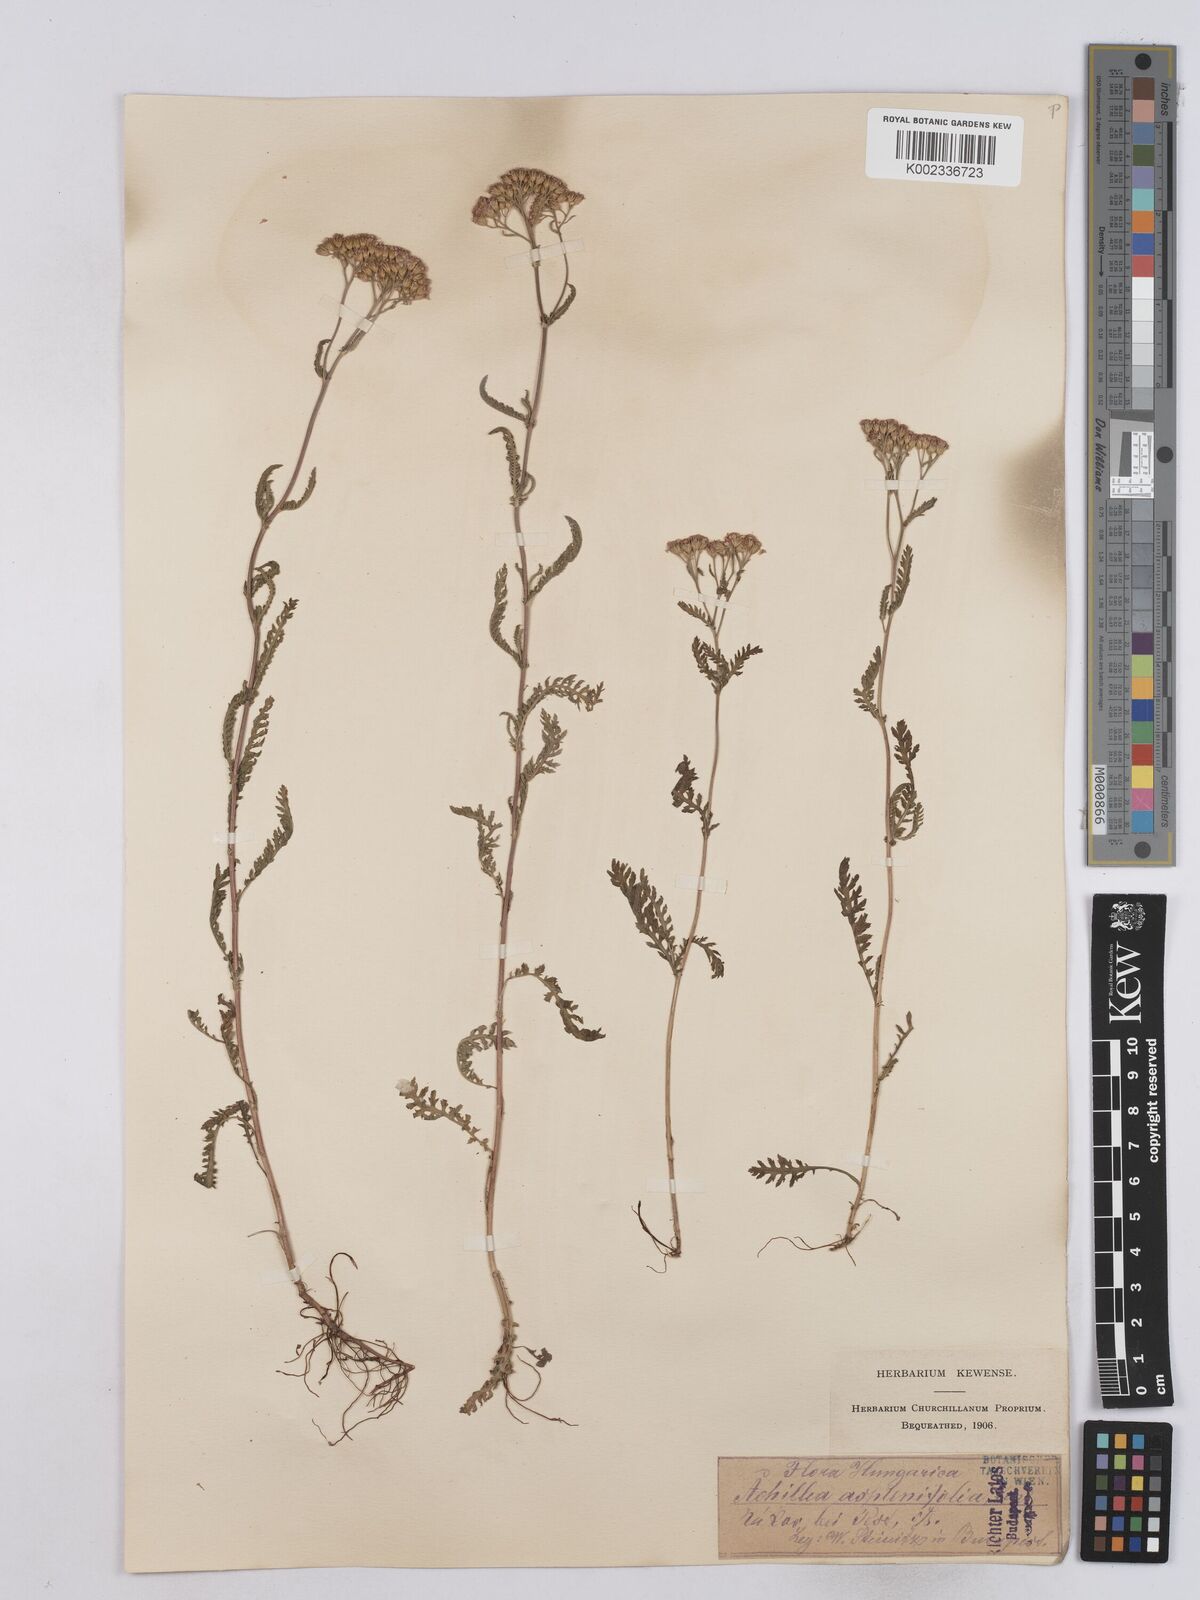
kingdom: Plantae
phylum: Tracheophyta
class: Magnoliopsida
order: Asterales
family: Asteraceae
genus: Achillea
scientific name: Achillea aspleniifolia
